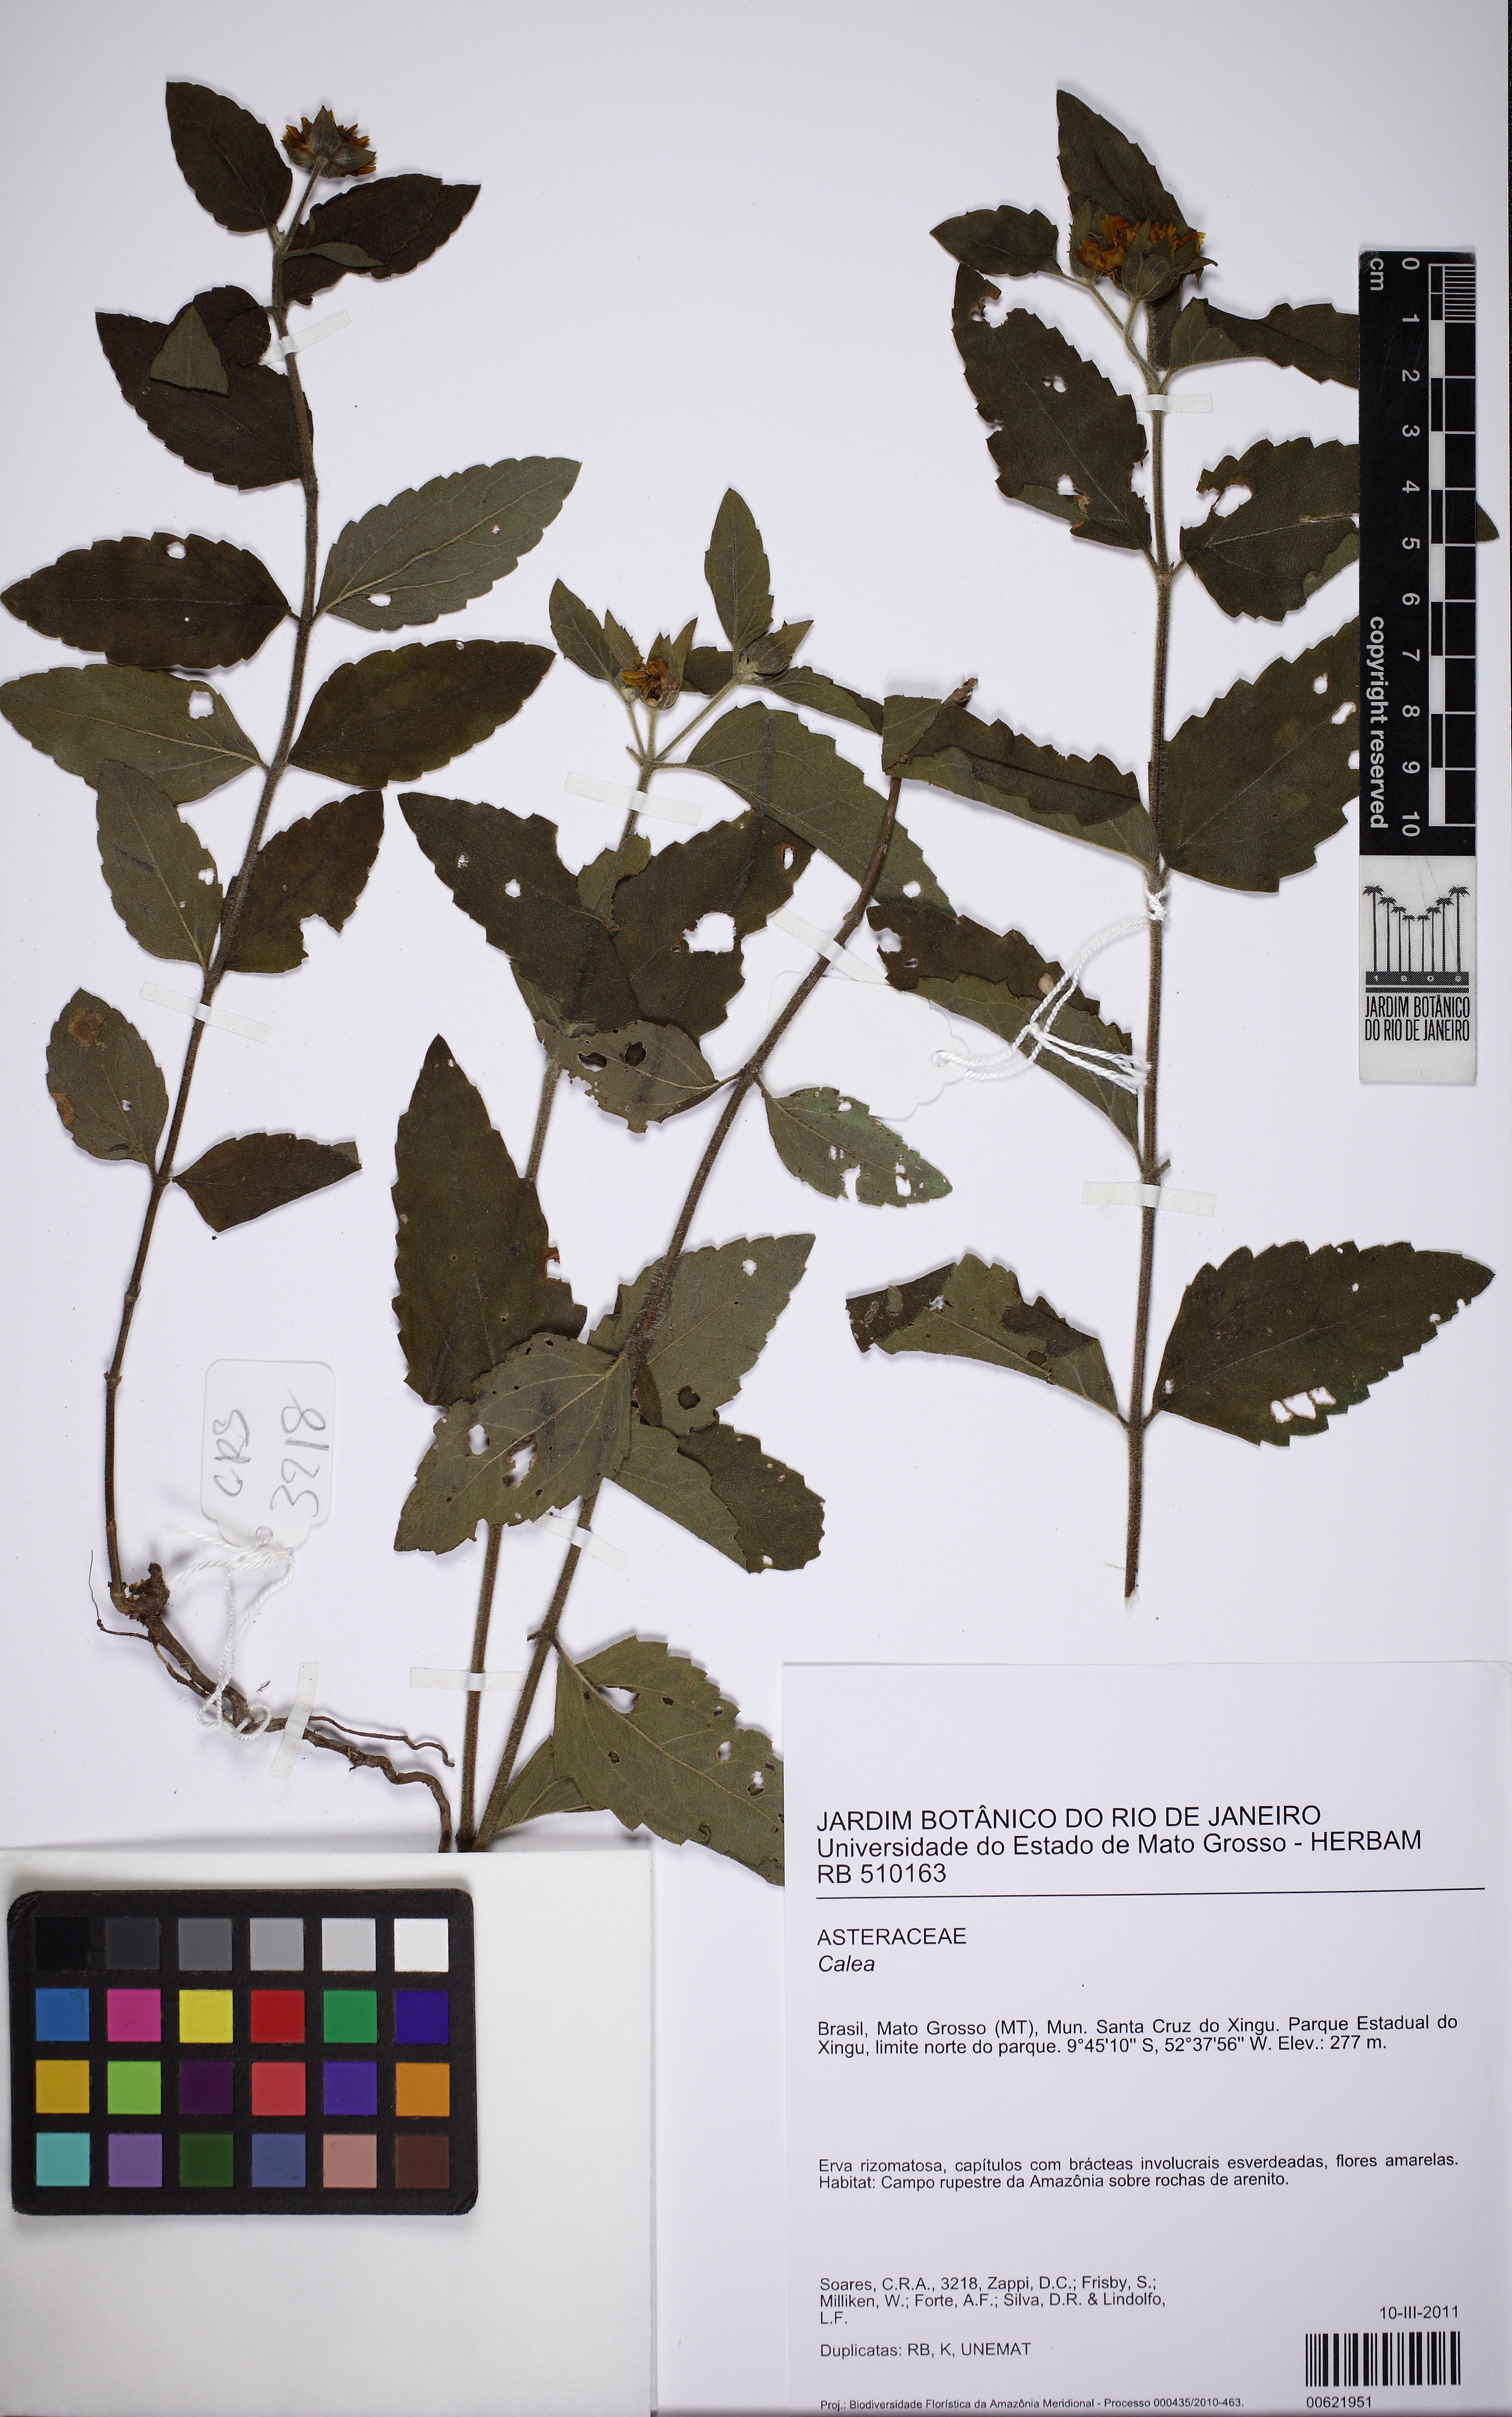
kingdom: Plantae
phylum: Tracheophyta
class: Magnoliopsida
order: Asterales
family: Asteraceae
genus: Calea
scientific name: Calea
